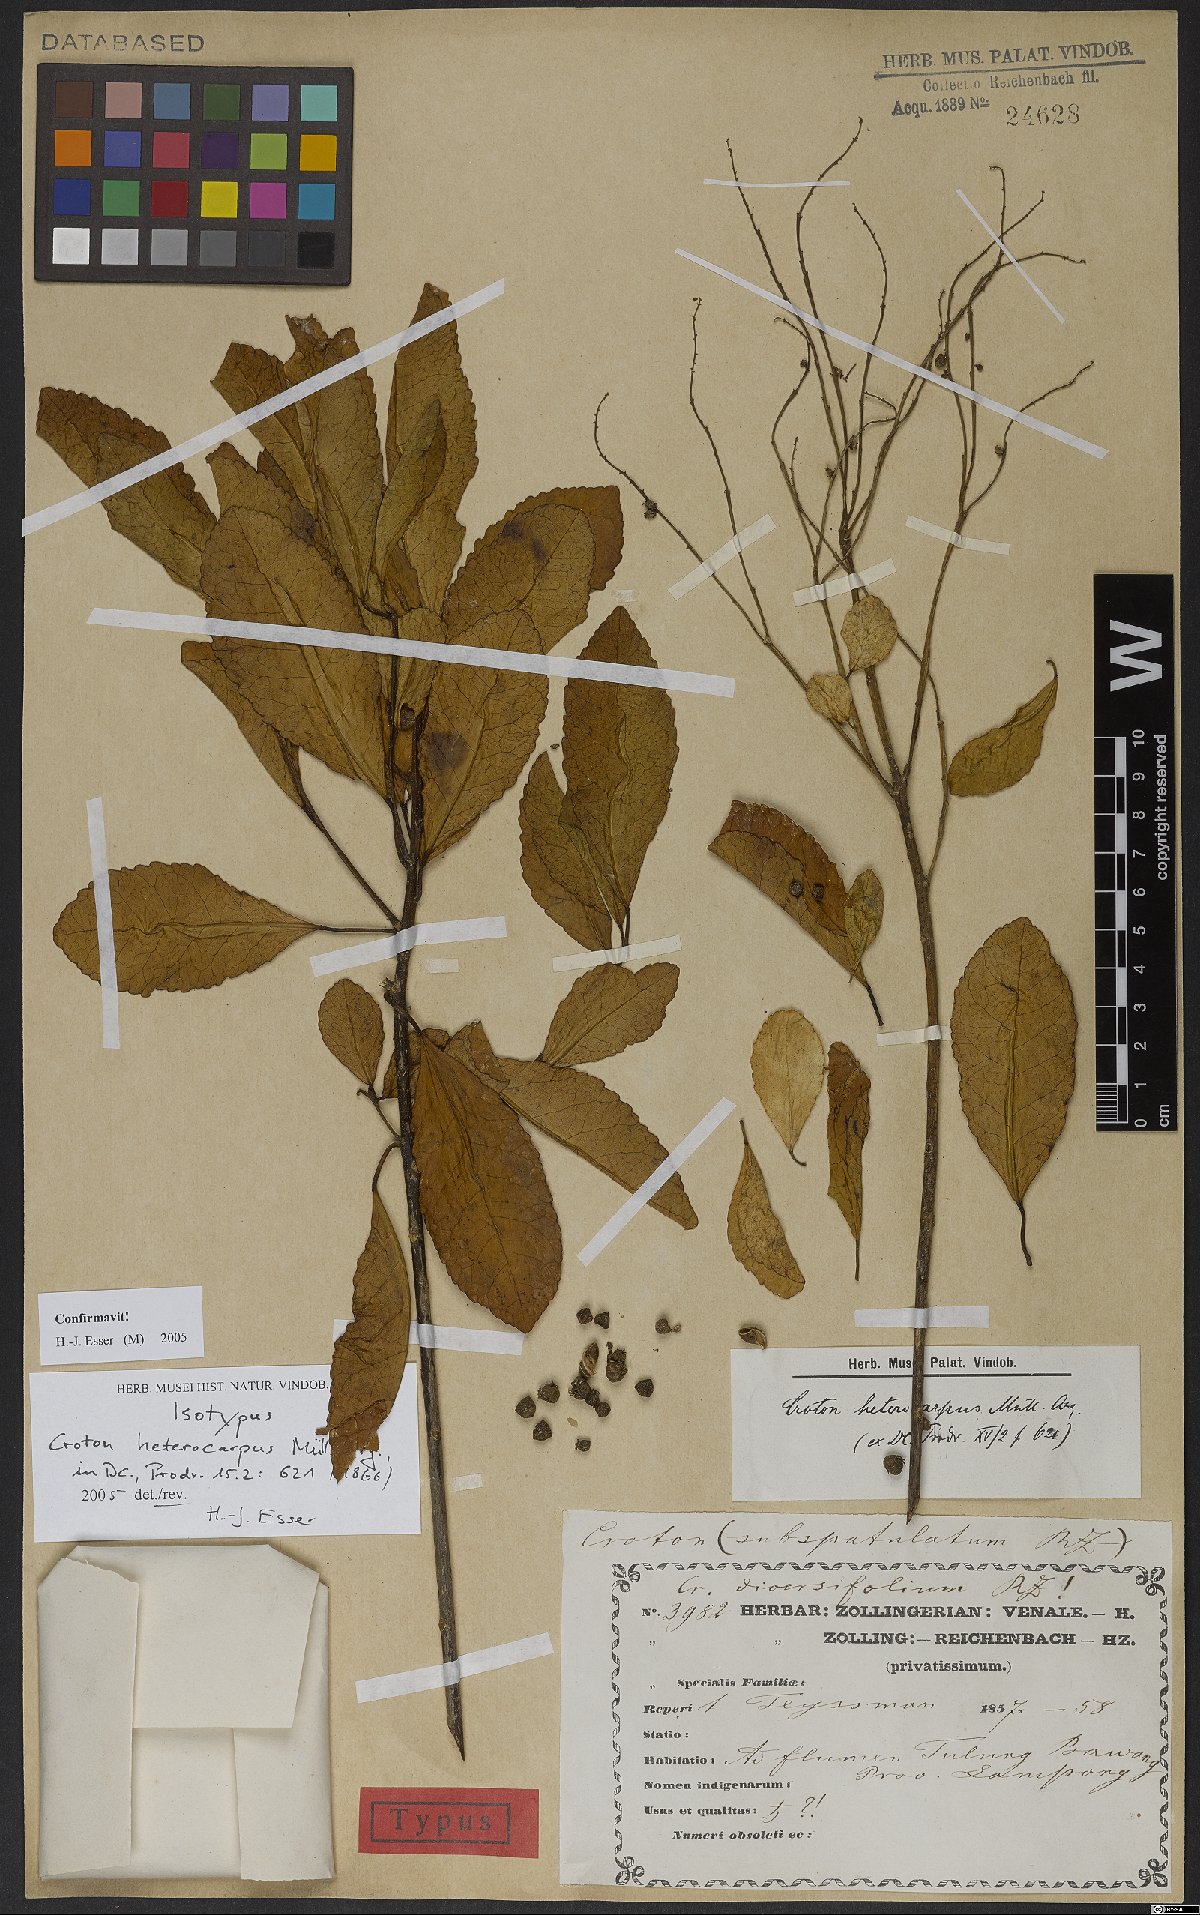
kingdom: Plantae
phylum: Tracheophyta
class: Magnoliopsida
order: Malpighiales
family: Euphorbiaceae
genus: Croton
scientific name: Croton heterocarpus
